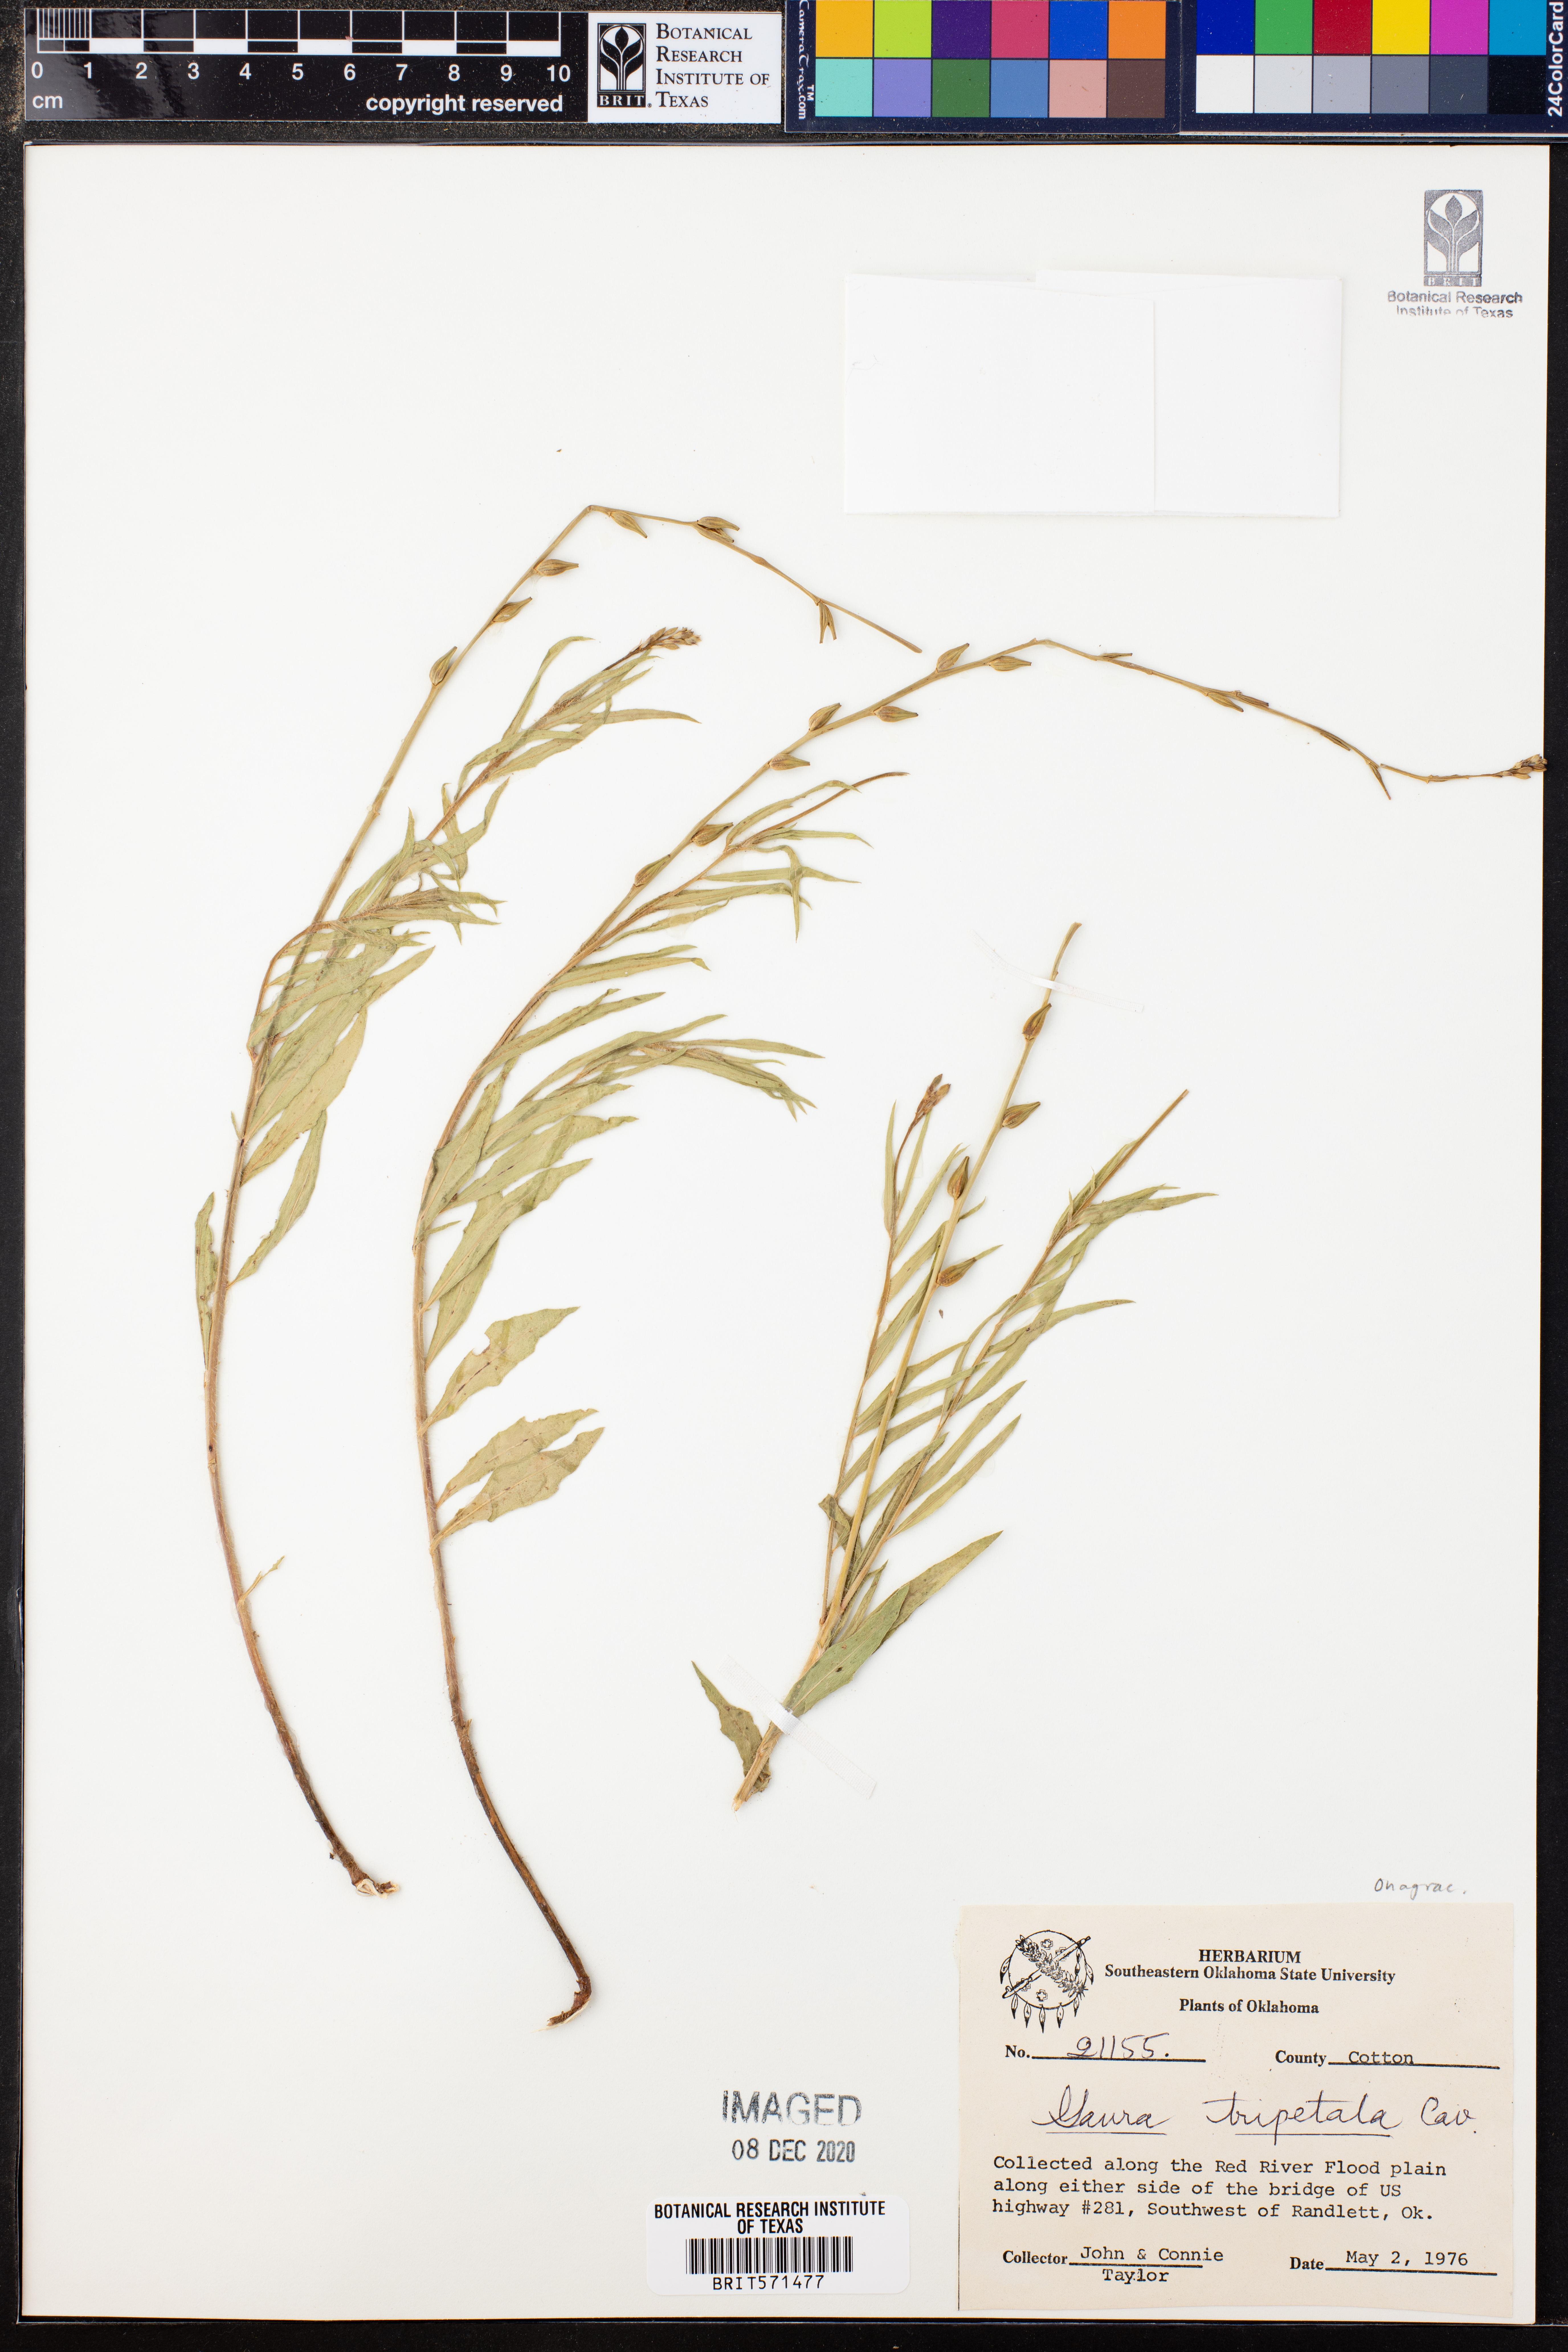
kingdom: Plantae
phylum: Tracheophyta
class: Magnoliopsida
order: Myrtales
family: Onagraceae
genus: Oenothera
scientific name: Oenothera hexandra
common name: Harlequinbush
